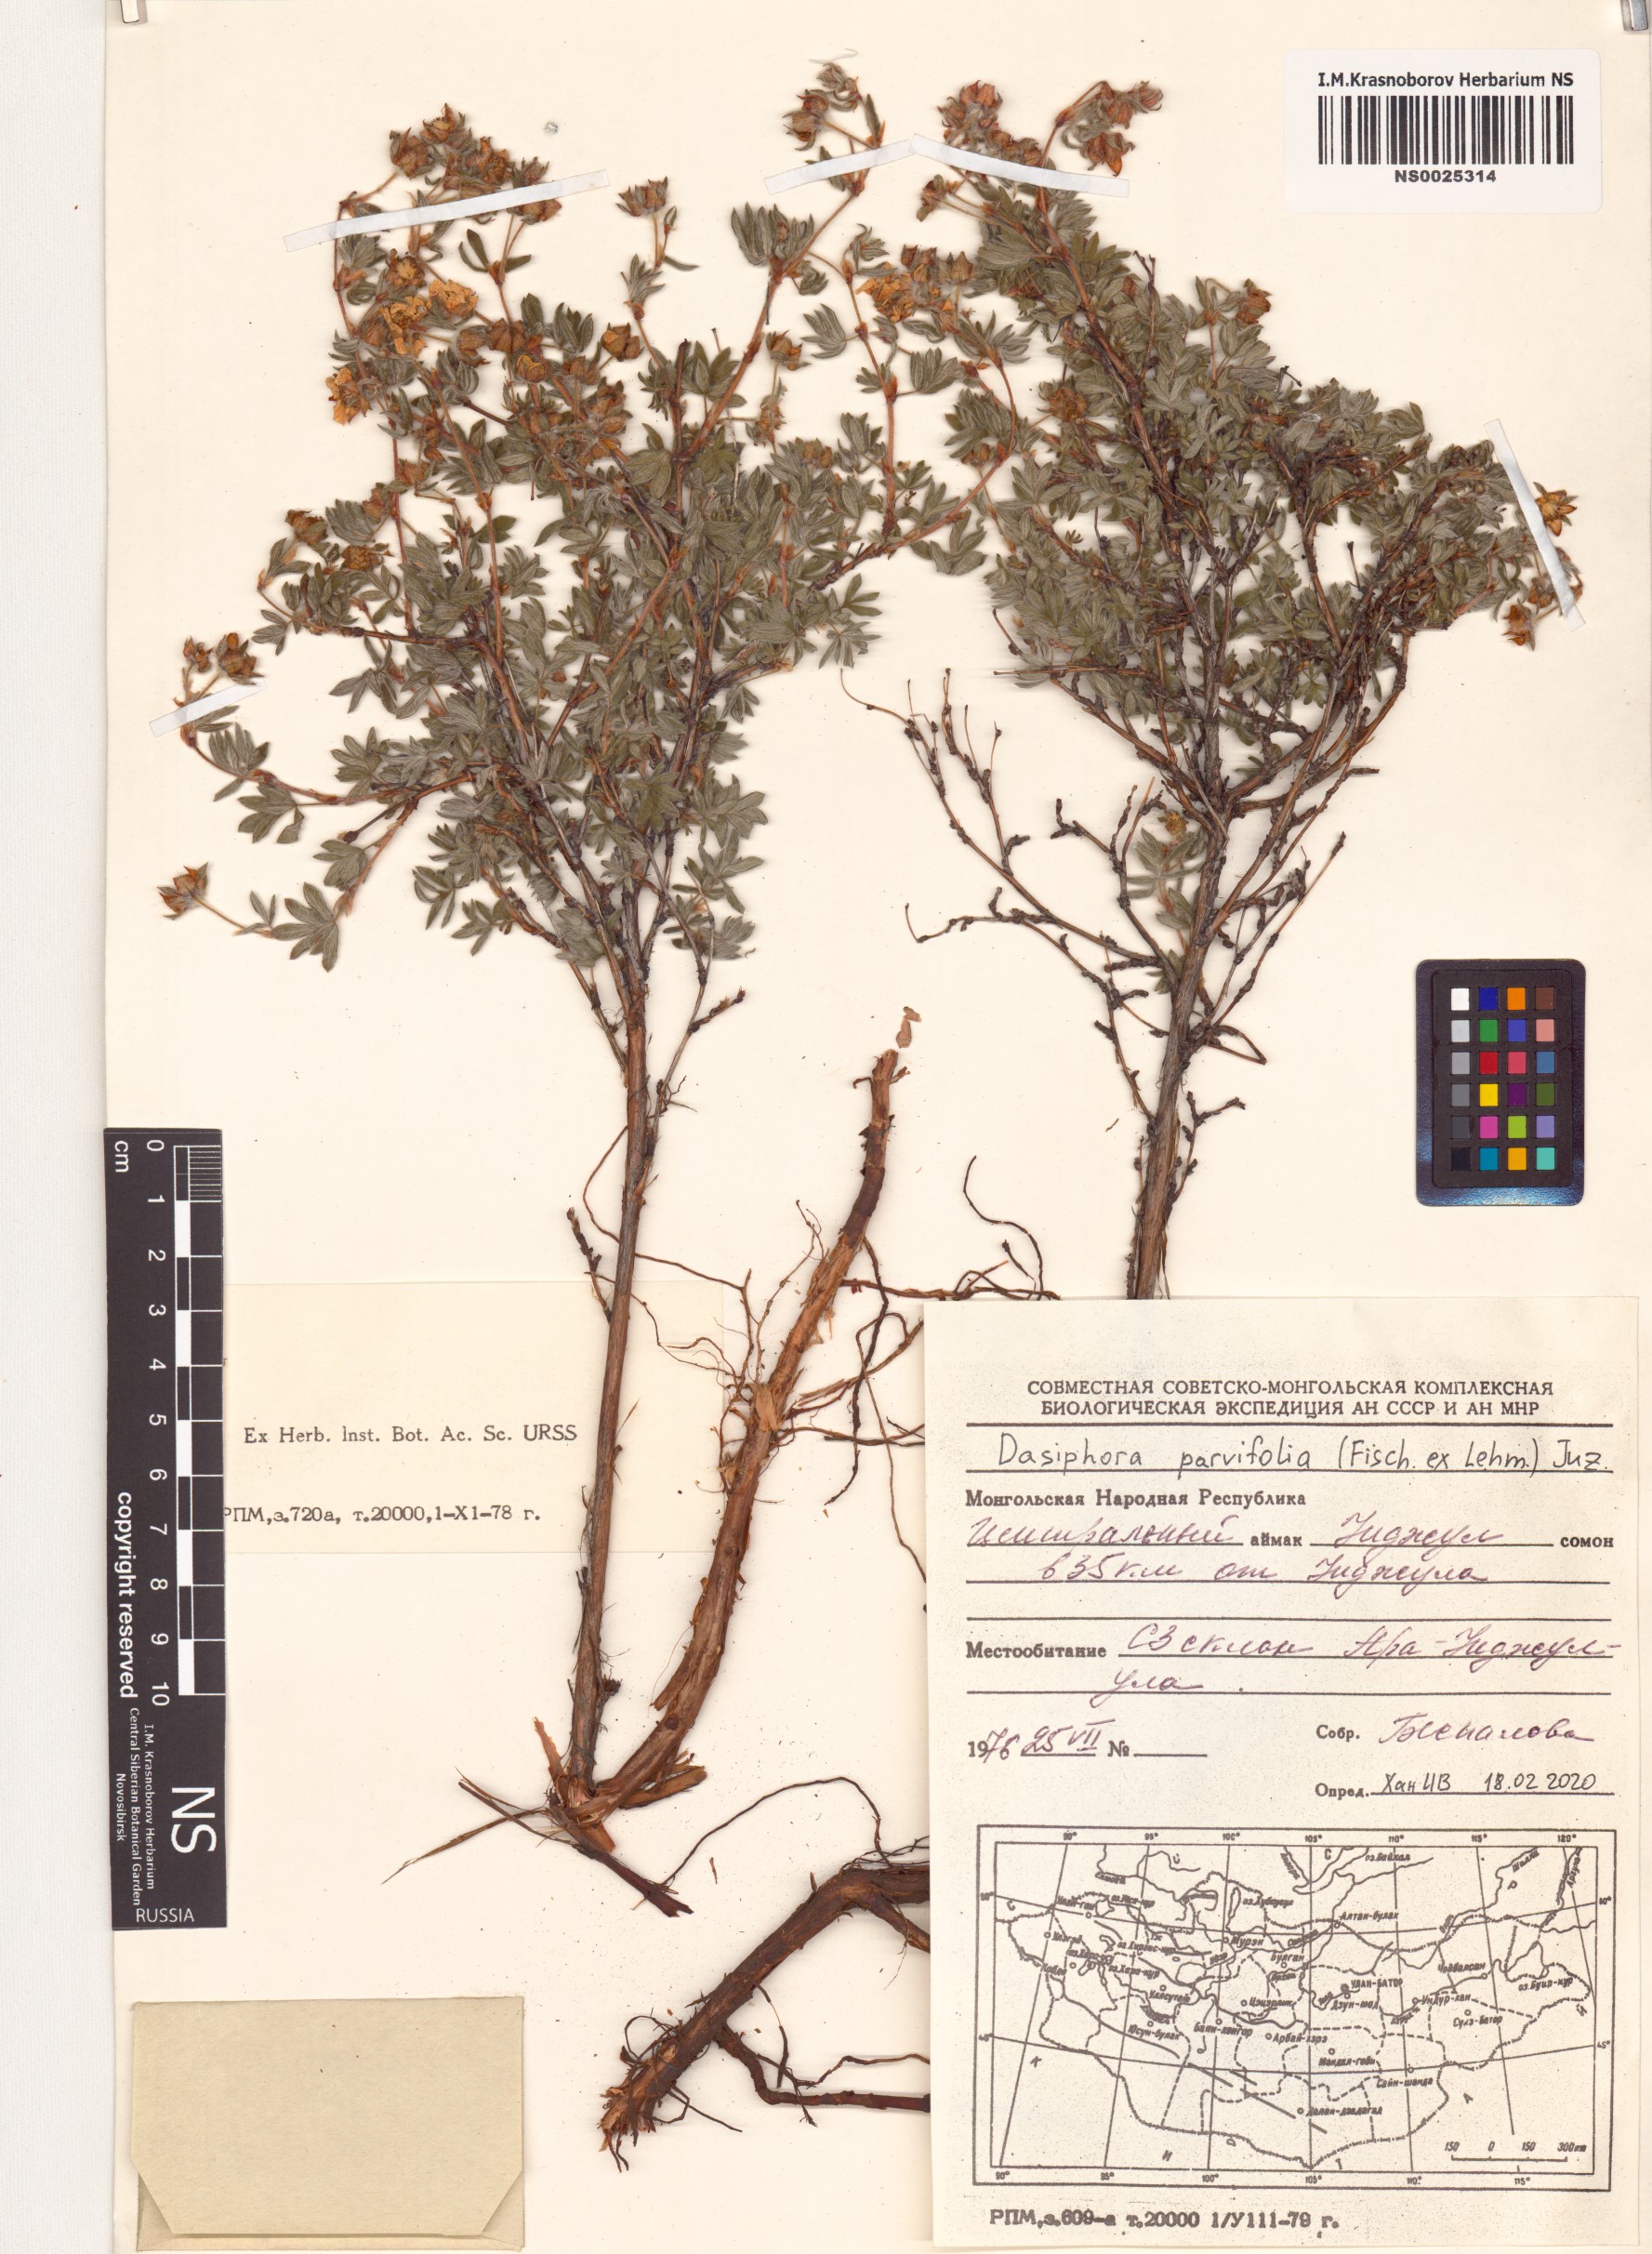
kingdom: Plantae
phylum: Tracheophyta
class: Magnoliopsida
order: Rosales
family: Rosaceae
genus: Dasiphora
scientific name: Dasiphora parvifolia
